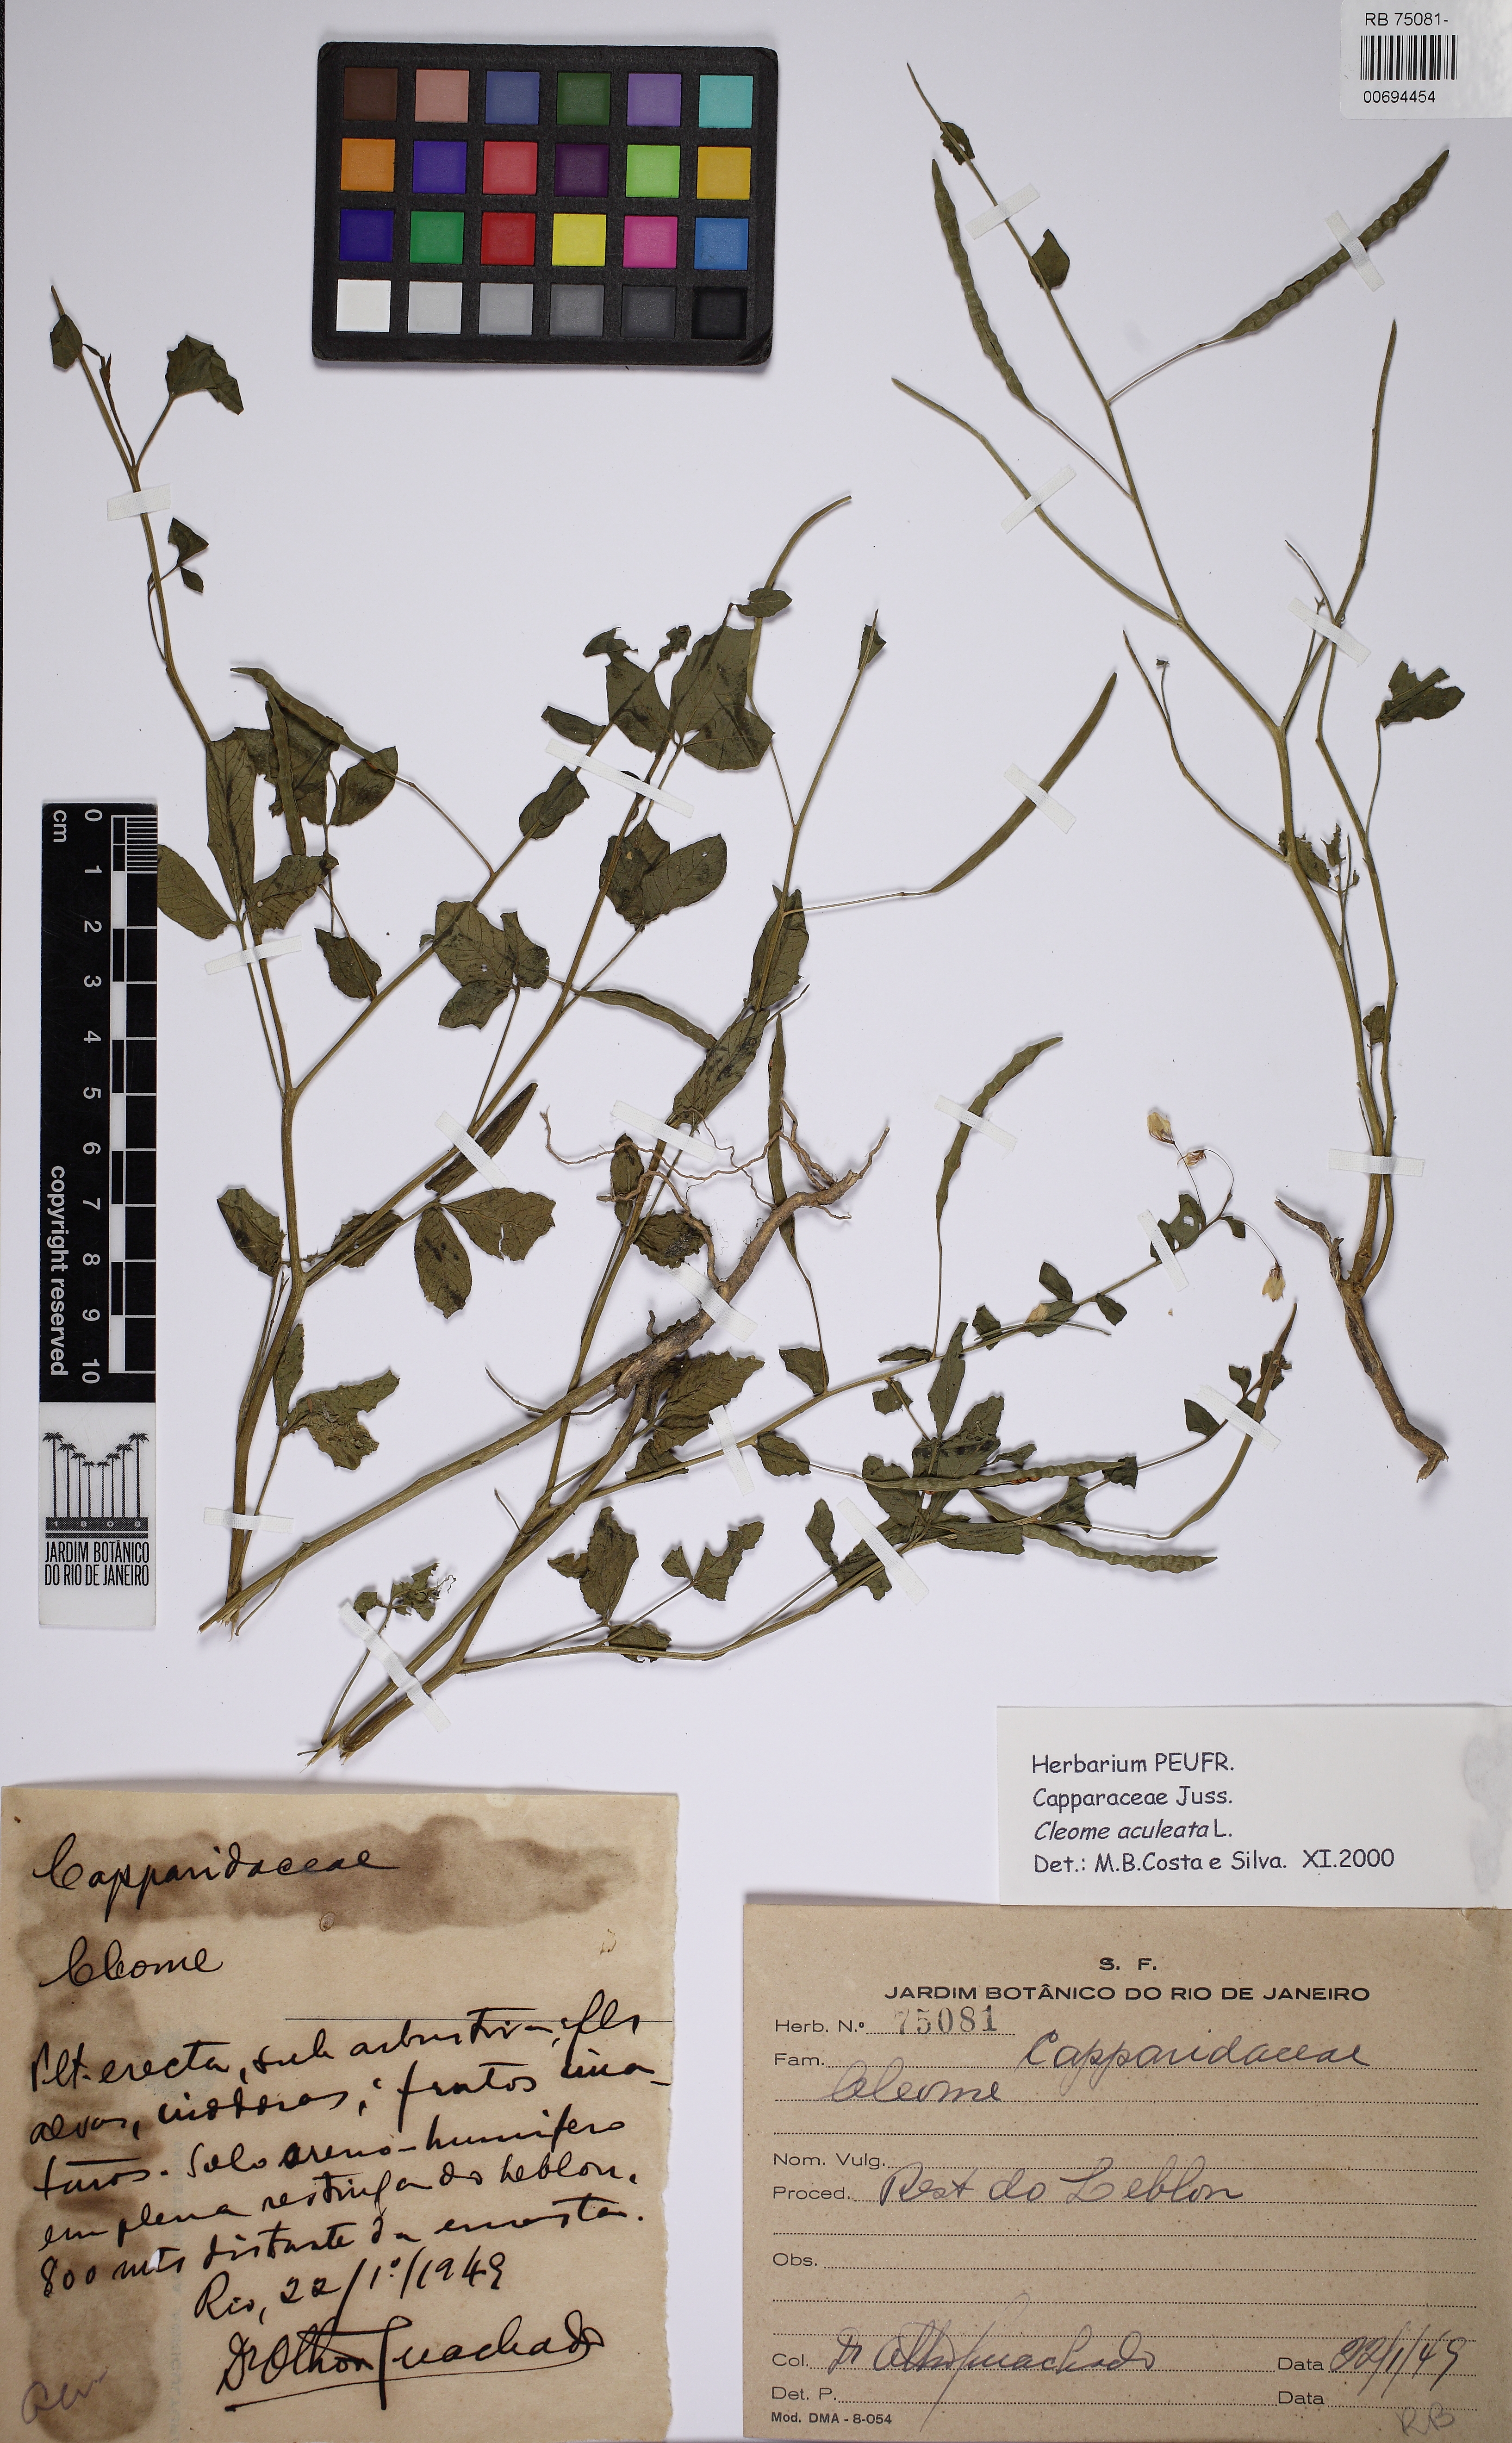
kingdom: Plantae
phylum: Tracheophyta
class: Magnoliopsida
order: Brassicales
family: Cleomaceae
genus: Tarenaya
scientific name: Tarenaya aculeata
